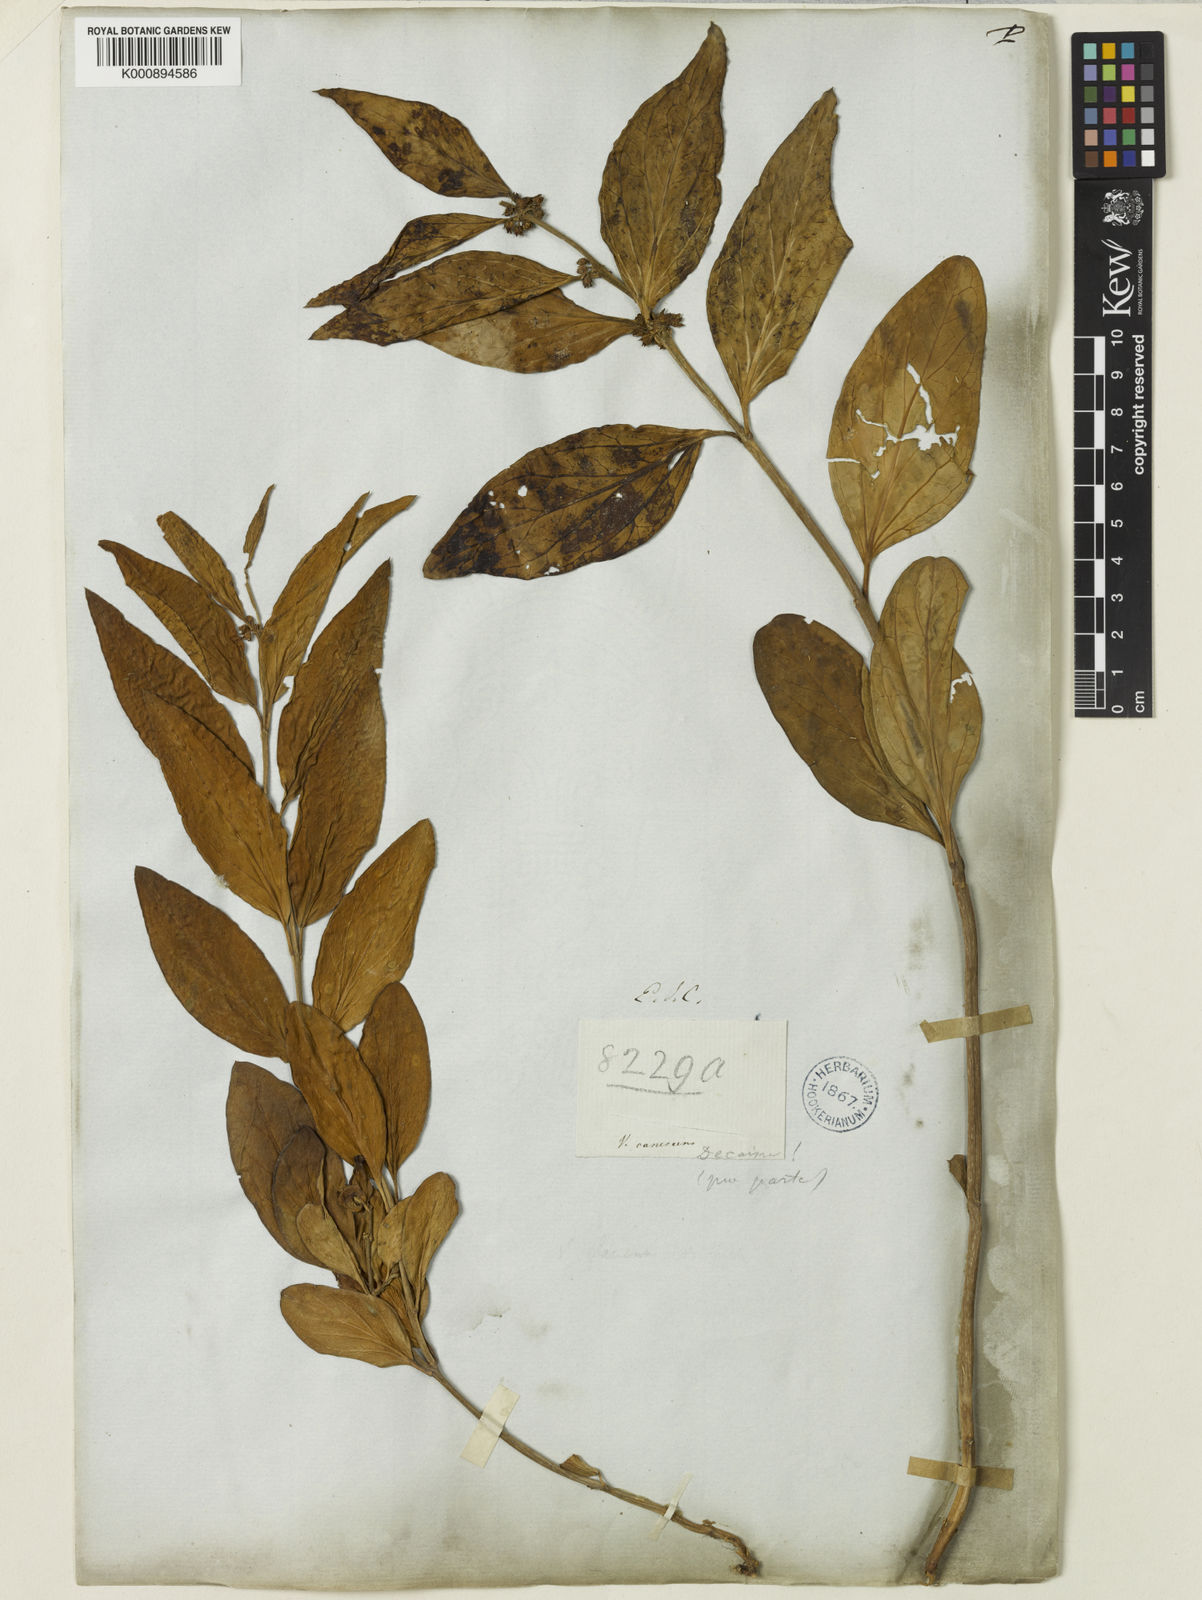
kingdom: Plantae
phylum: Tracheophyta
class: Magnoliopsida
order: Gentianales
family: Apocynaceae
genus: Vincetoxicum
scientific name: Vincetoxicum canescens
